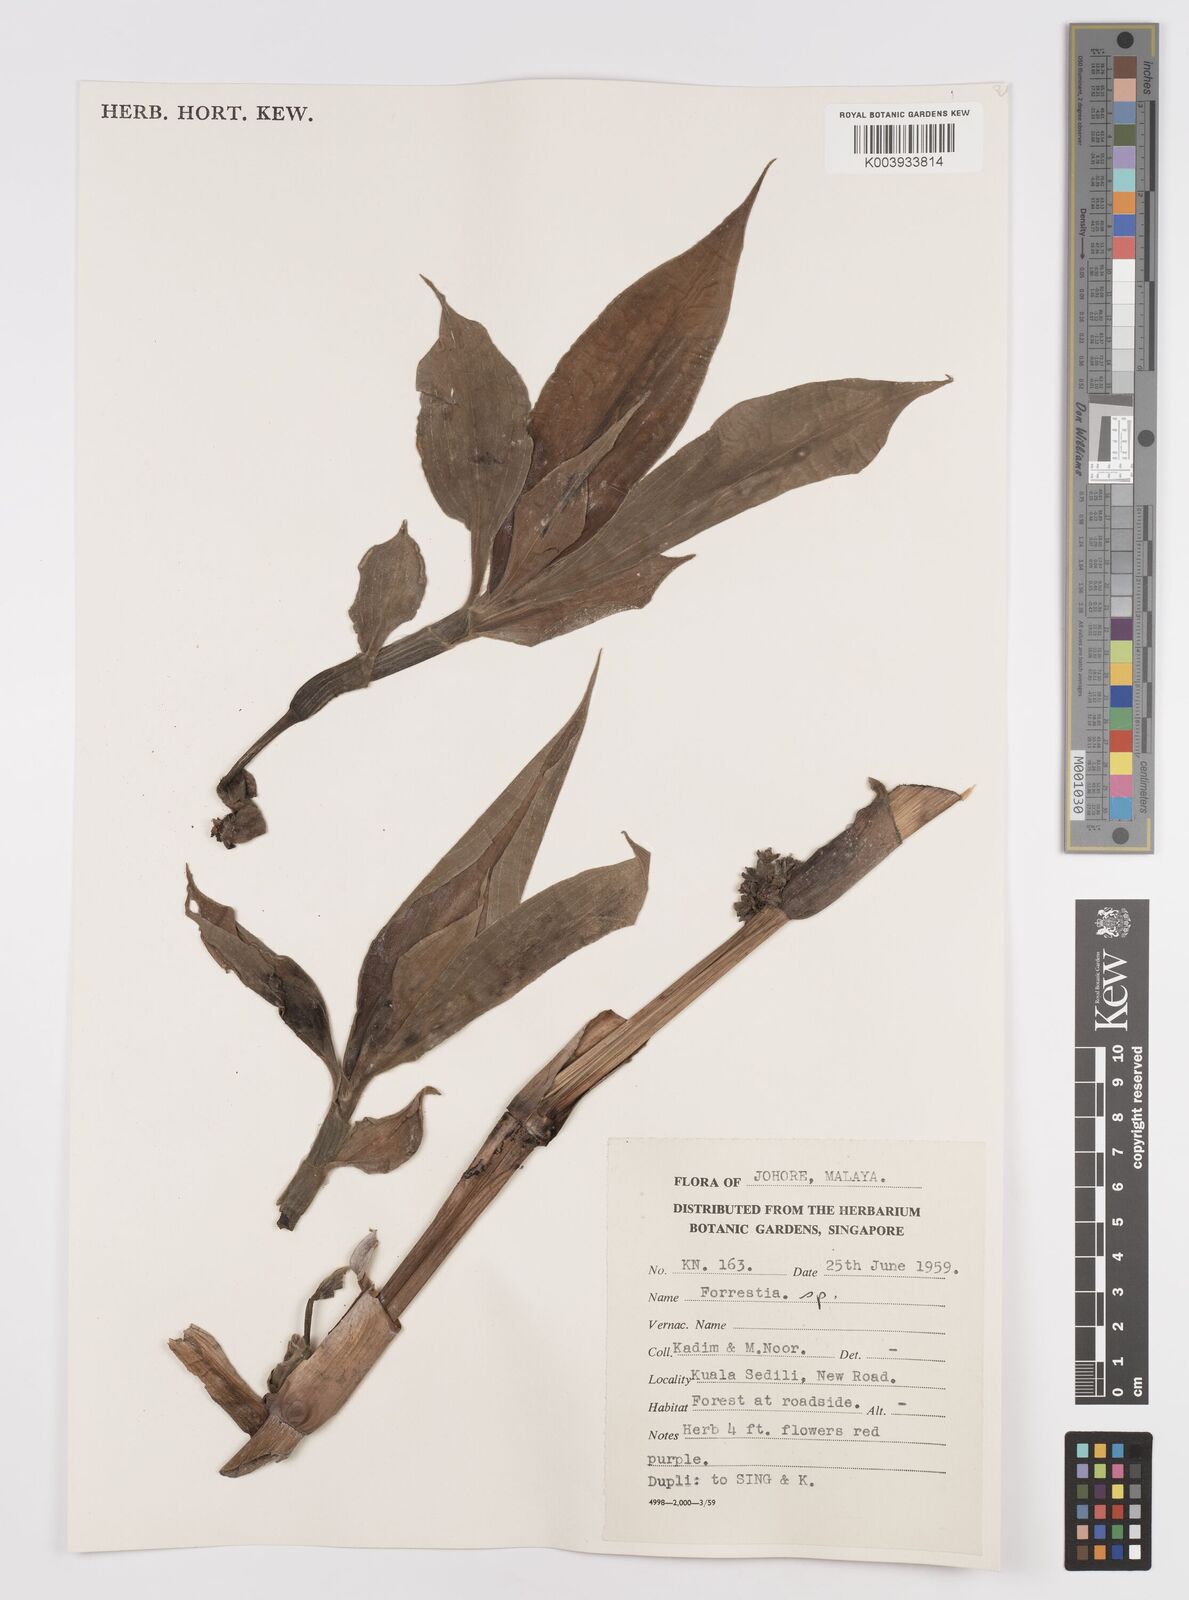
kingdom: Plantae
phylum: Tracheophyta
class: Liliopsida
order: Commelinales
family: Commelinaceae
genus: Amischotolype
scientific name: Amischotolype
